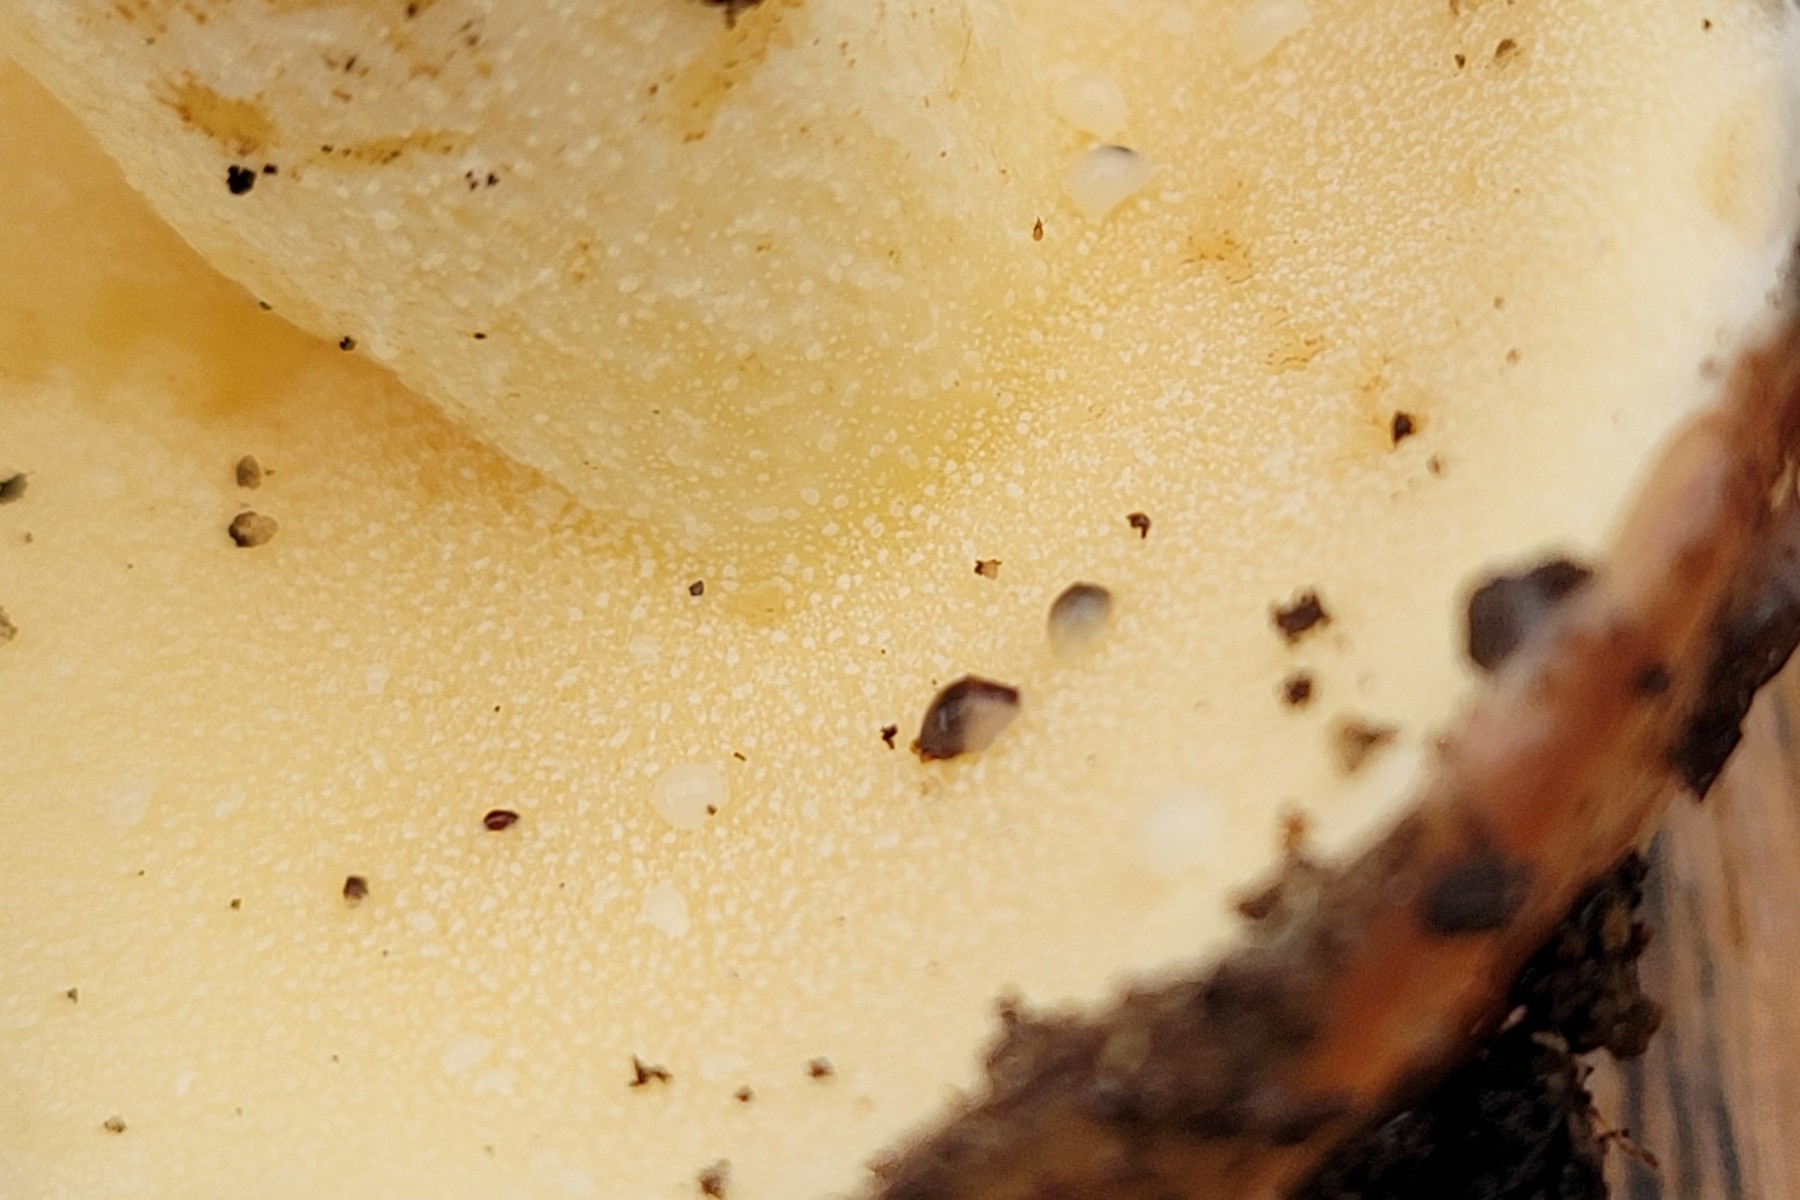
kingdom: Fungi
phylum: Basidiomycota
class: Agaricomycetes
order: Boletales
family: Suillaceae
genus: Suillus
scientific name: Suillus granulatus
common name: kornet slimrørhat
